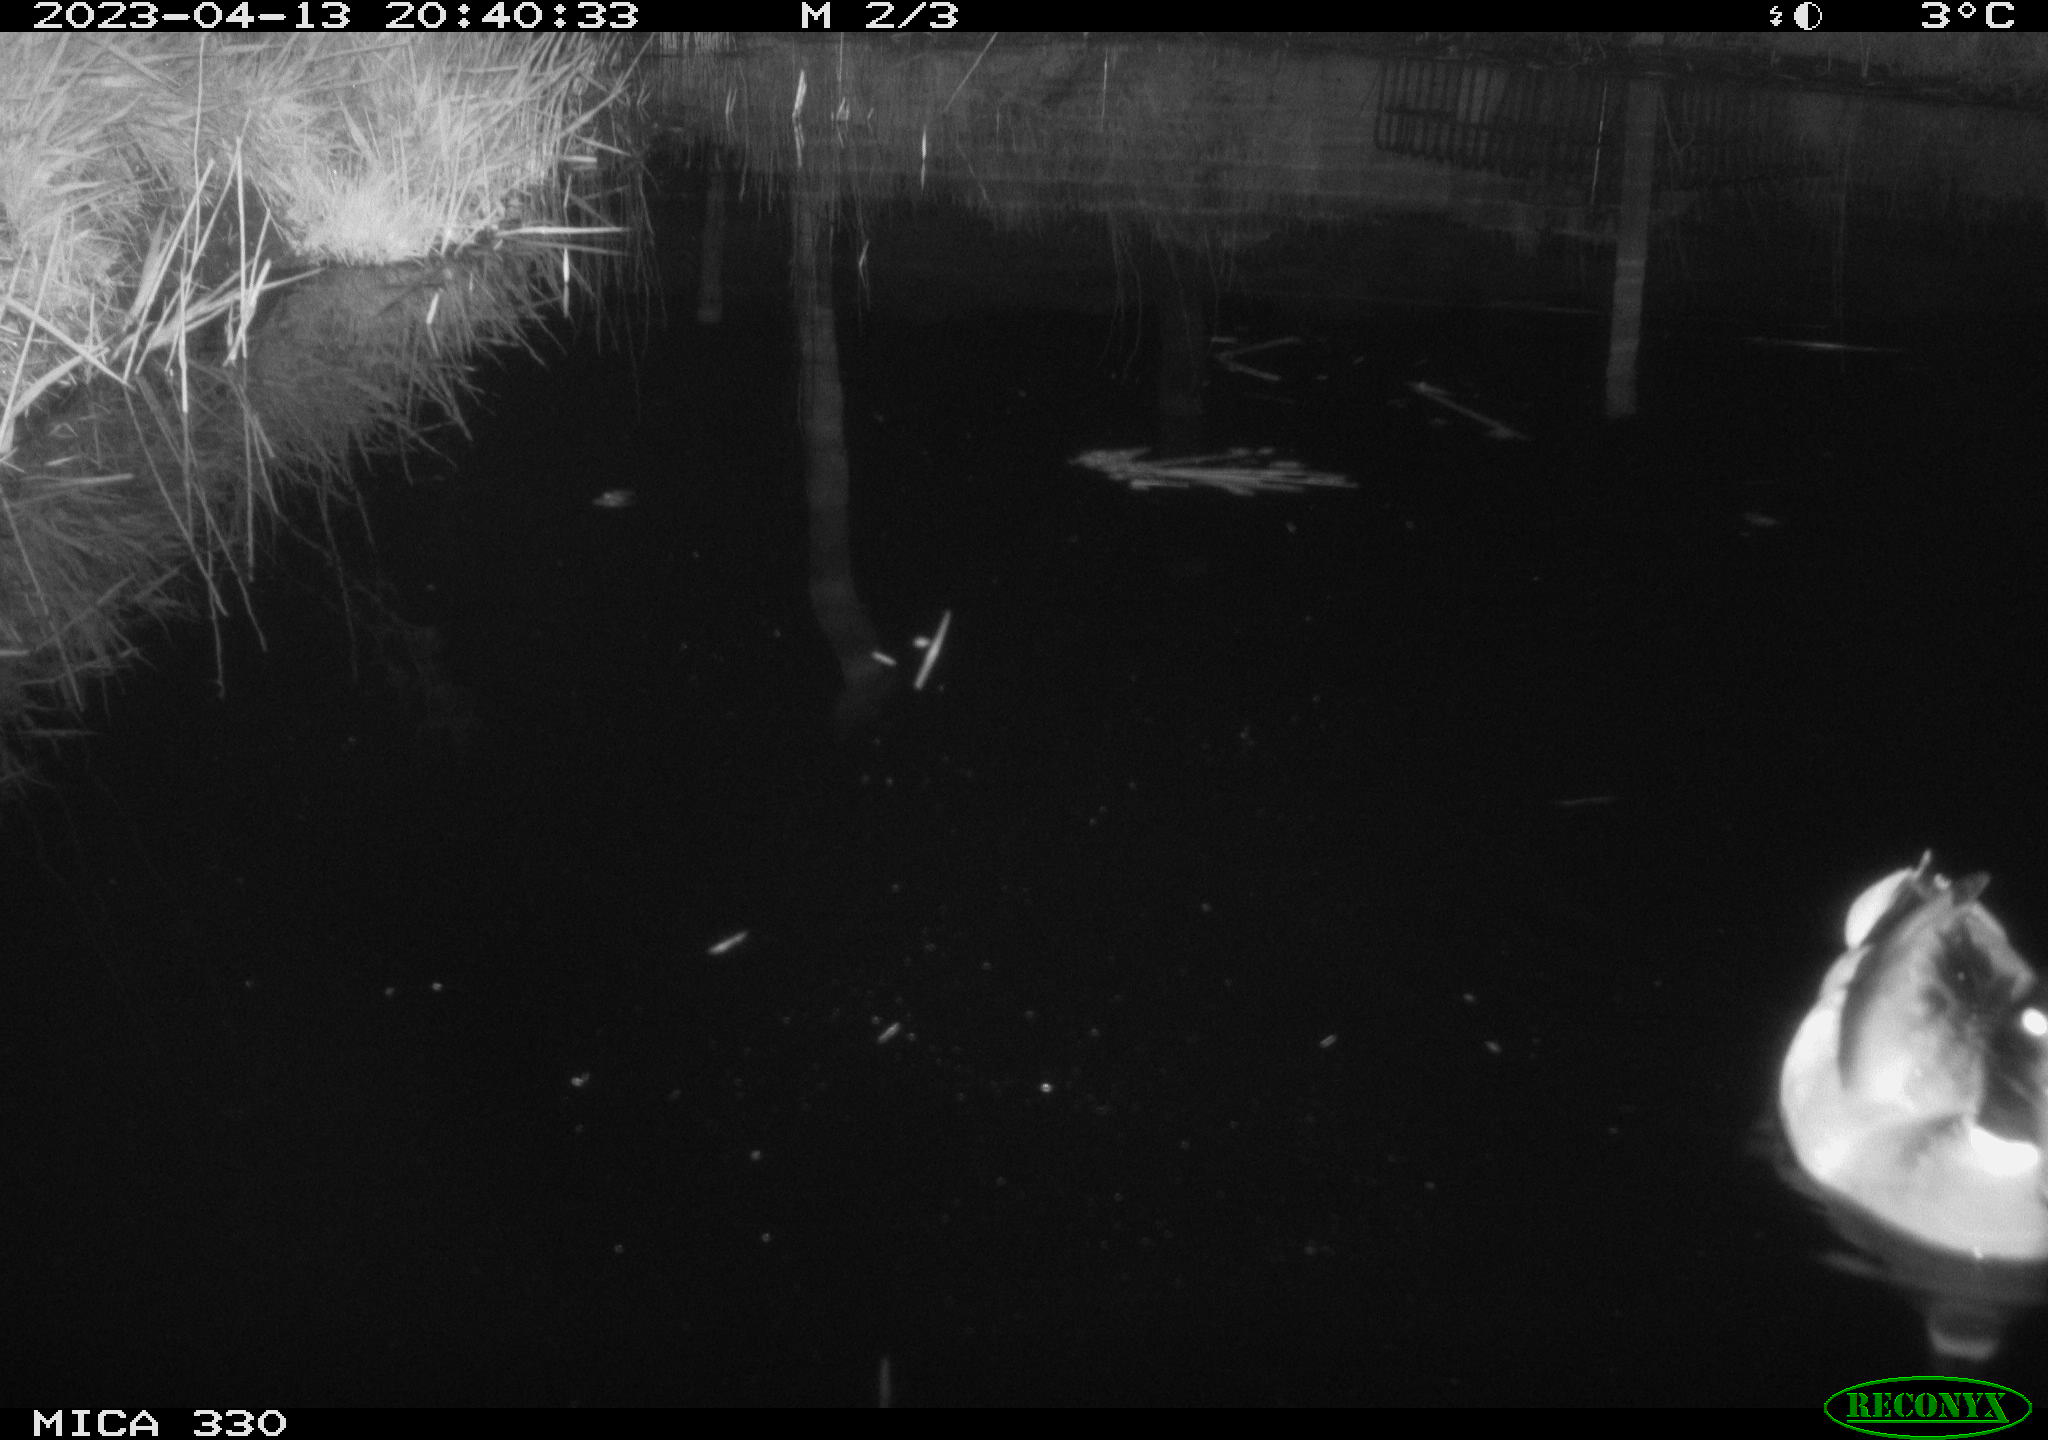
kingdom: Animalia
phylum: Chordata
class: Aves
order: Anseriformes
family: Anatidae
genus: Anas
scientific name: Anas
